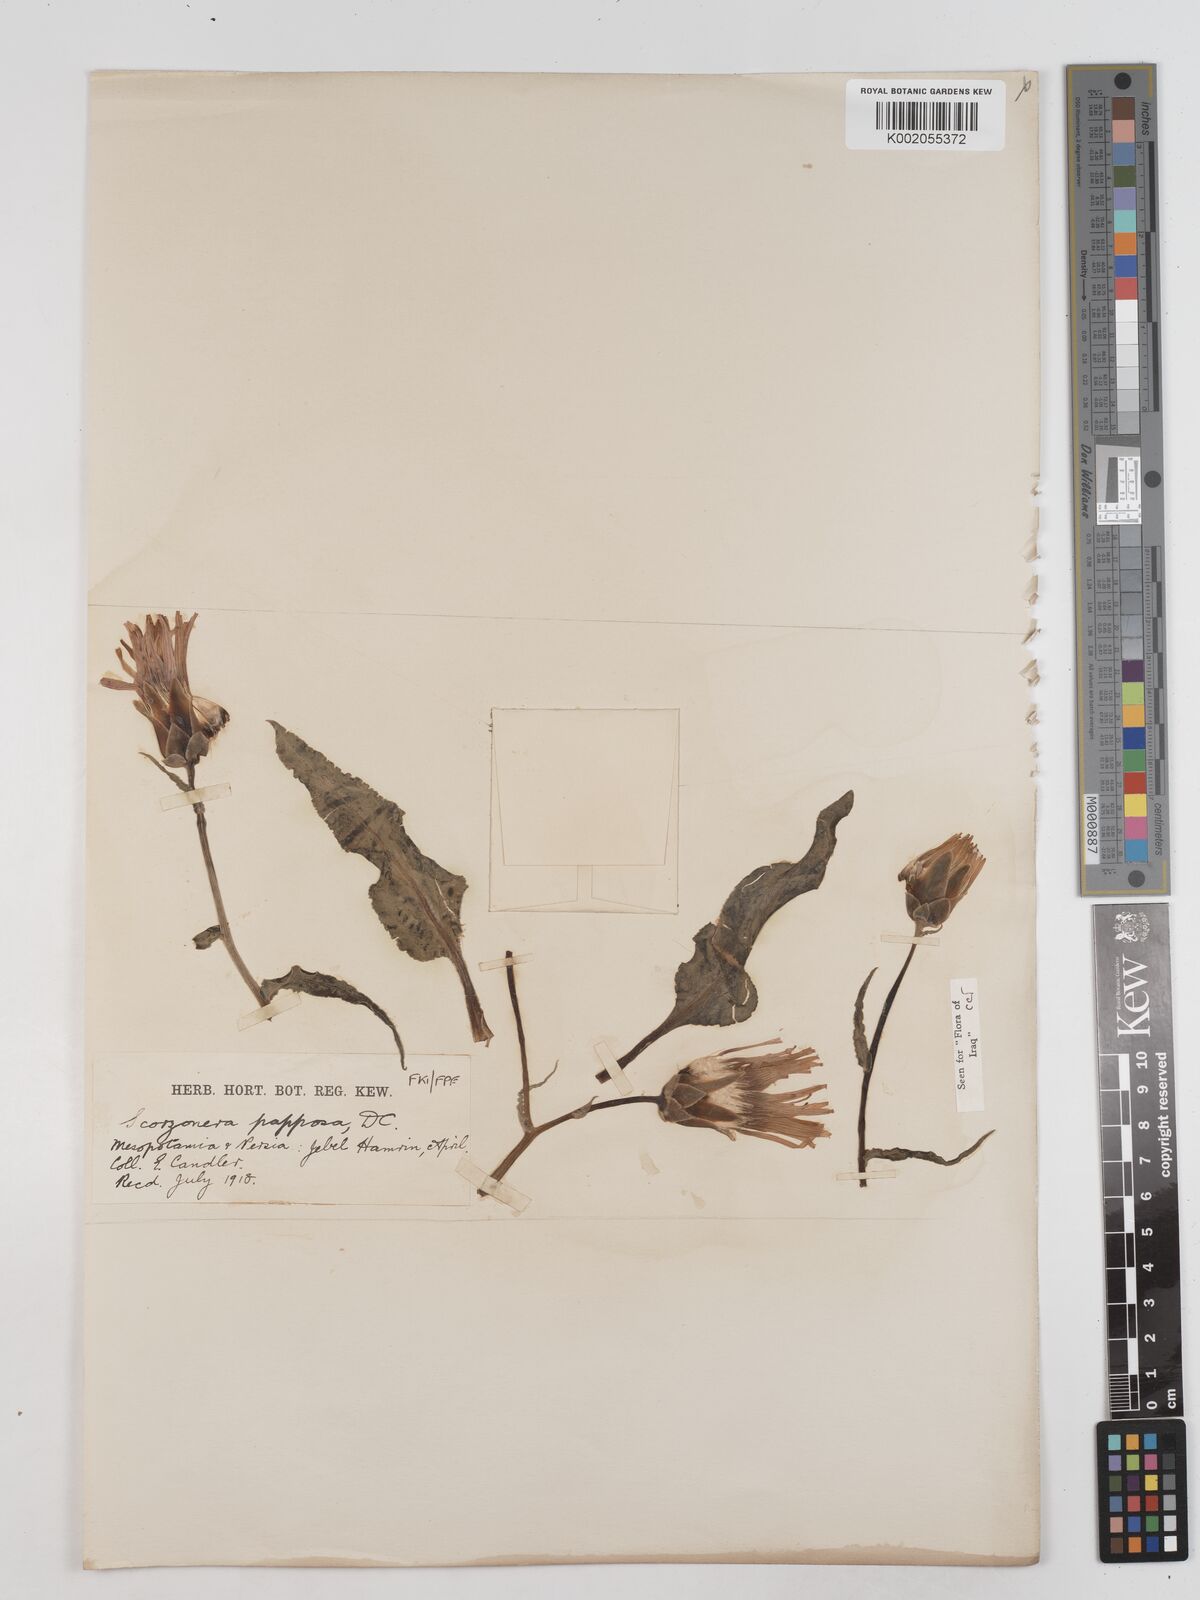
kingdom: Plantae
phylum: Tracheophyta
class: Magnoliopsida
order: Asterales
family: Asteraceae
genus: Pseudopodospermum
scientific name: Pseudopodospermum papposum
